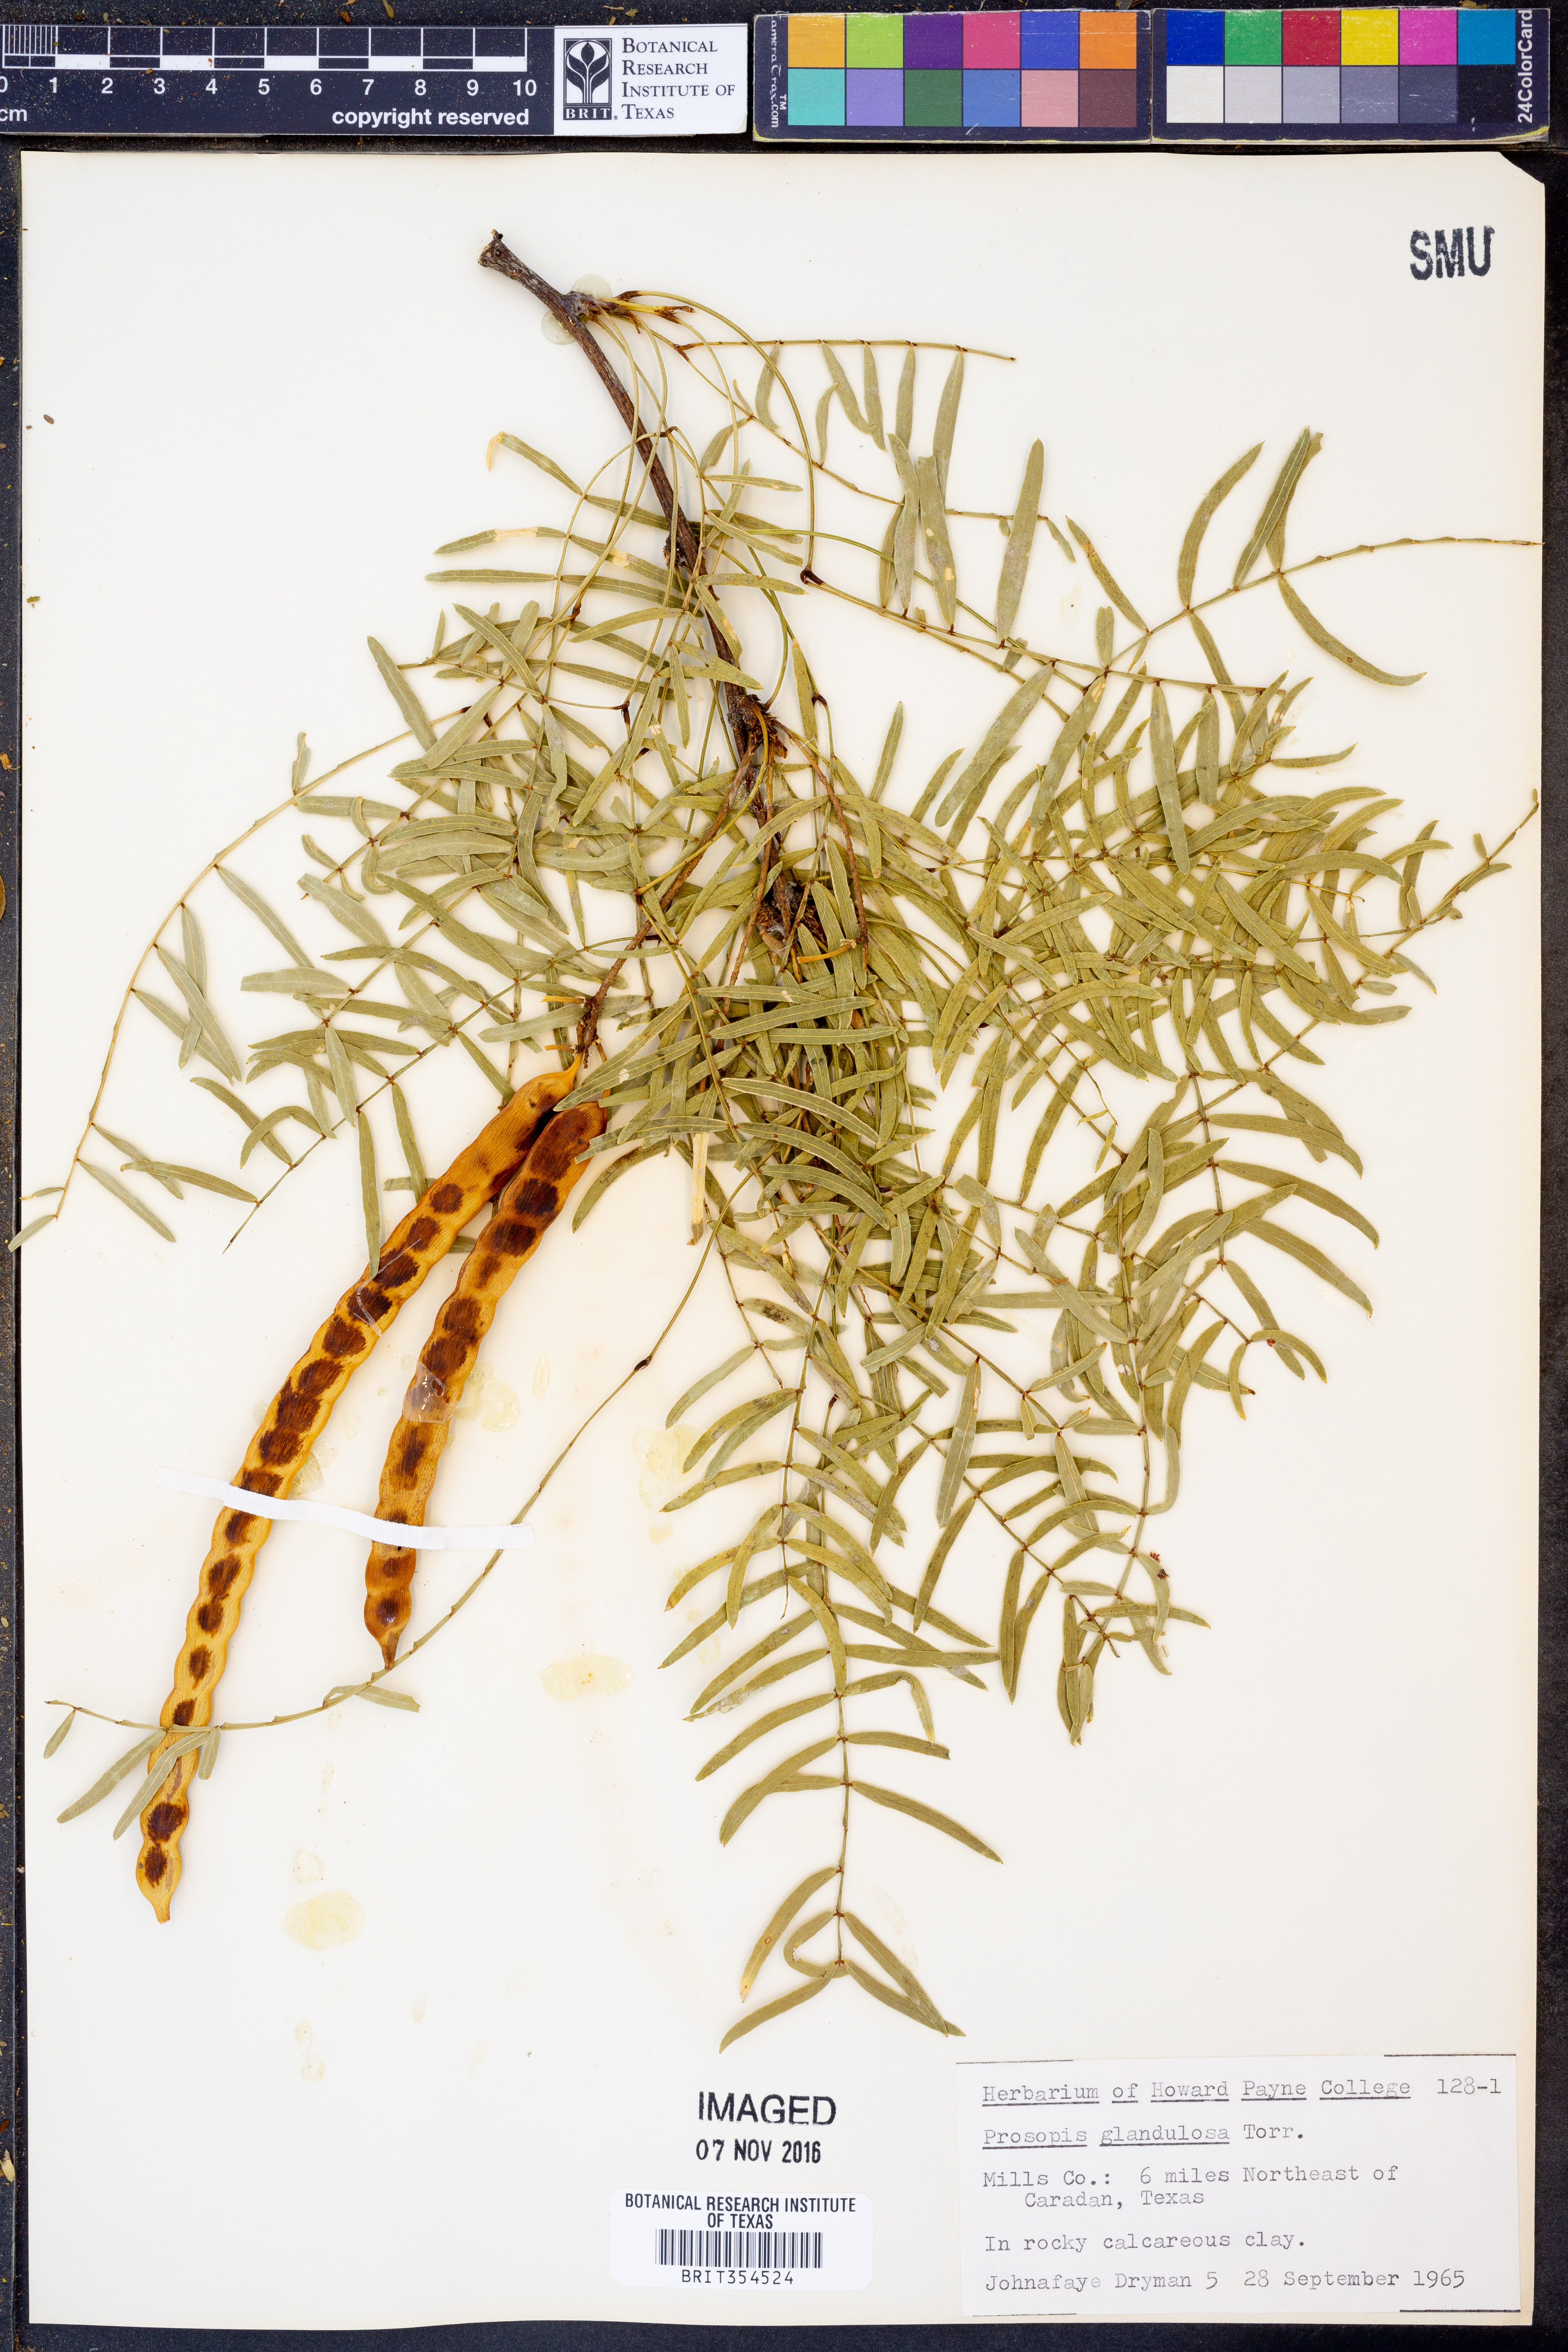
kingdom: Plantae
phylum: Tracheophyta
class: Magnoliopsida
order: Fabales
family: Fabaceae
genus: Prosopis
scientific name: Prosopis glandulosa
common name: Honey mesquite
